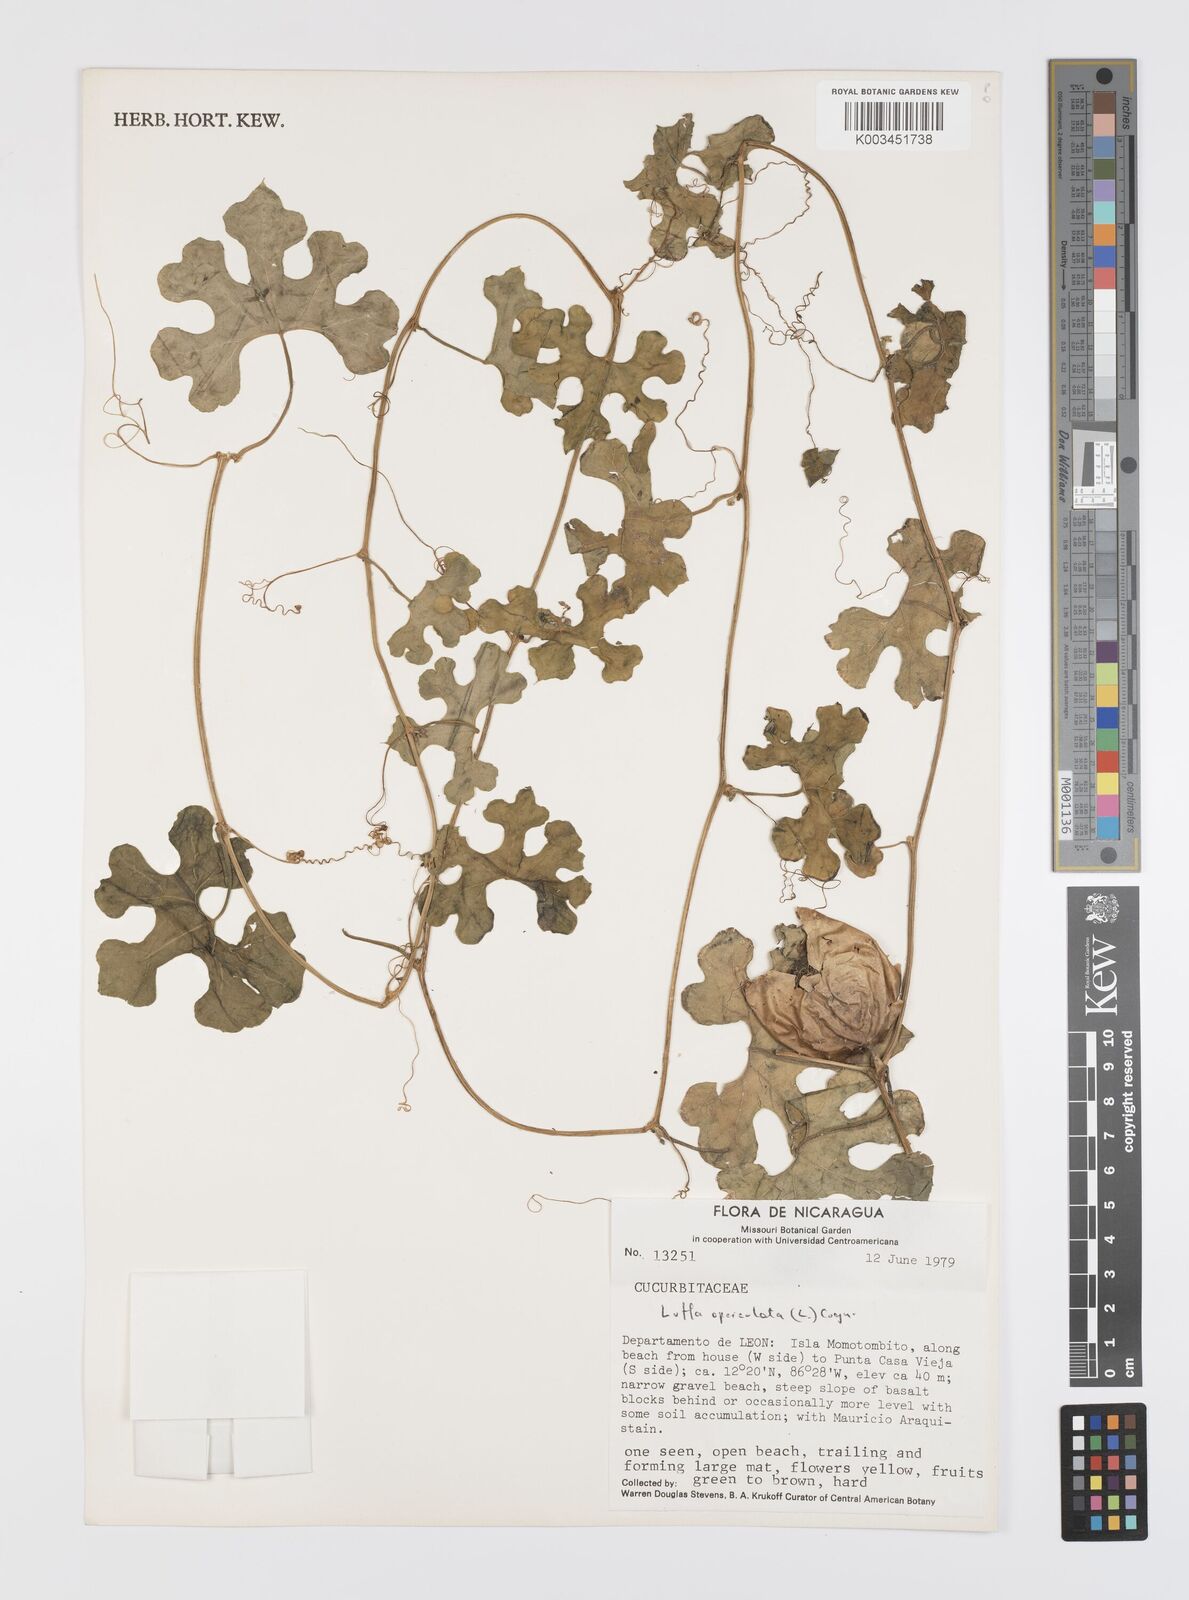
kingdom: Plantae
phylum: Tracheophyta
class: Magnoliopsida
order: Cucurbitales
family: Cucurbitaceae
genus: Luffa
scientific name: Luffa quinquefolia
